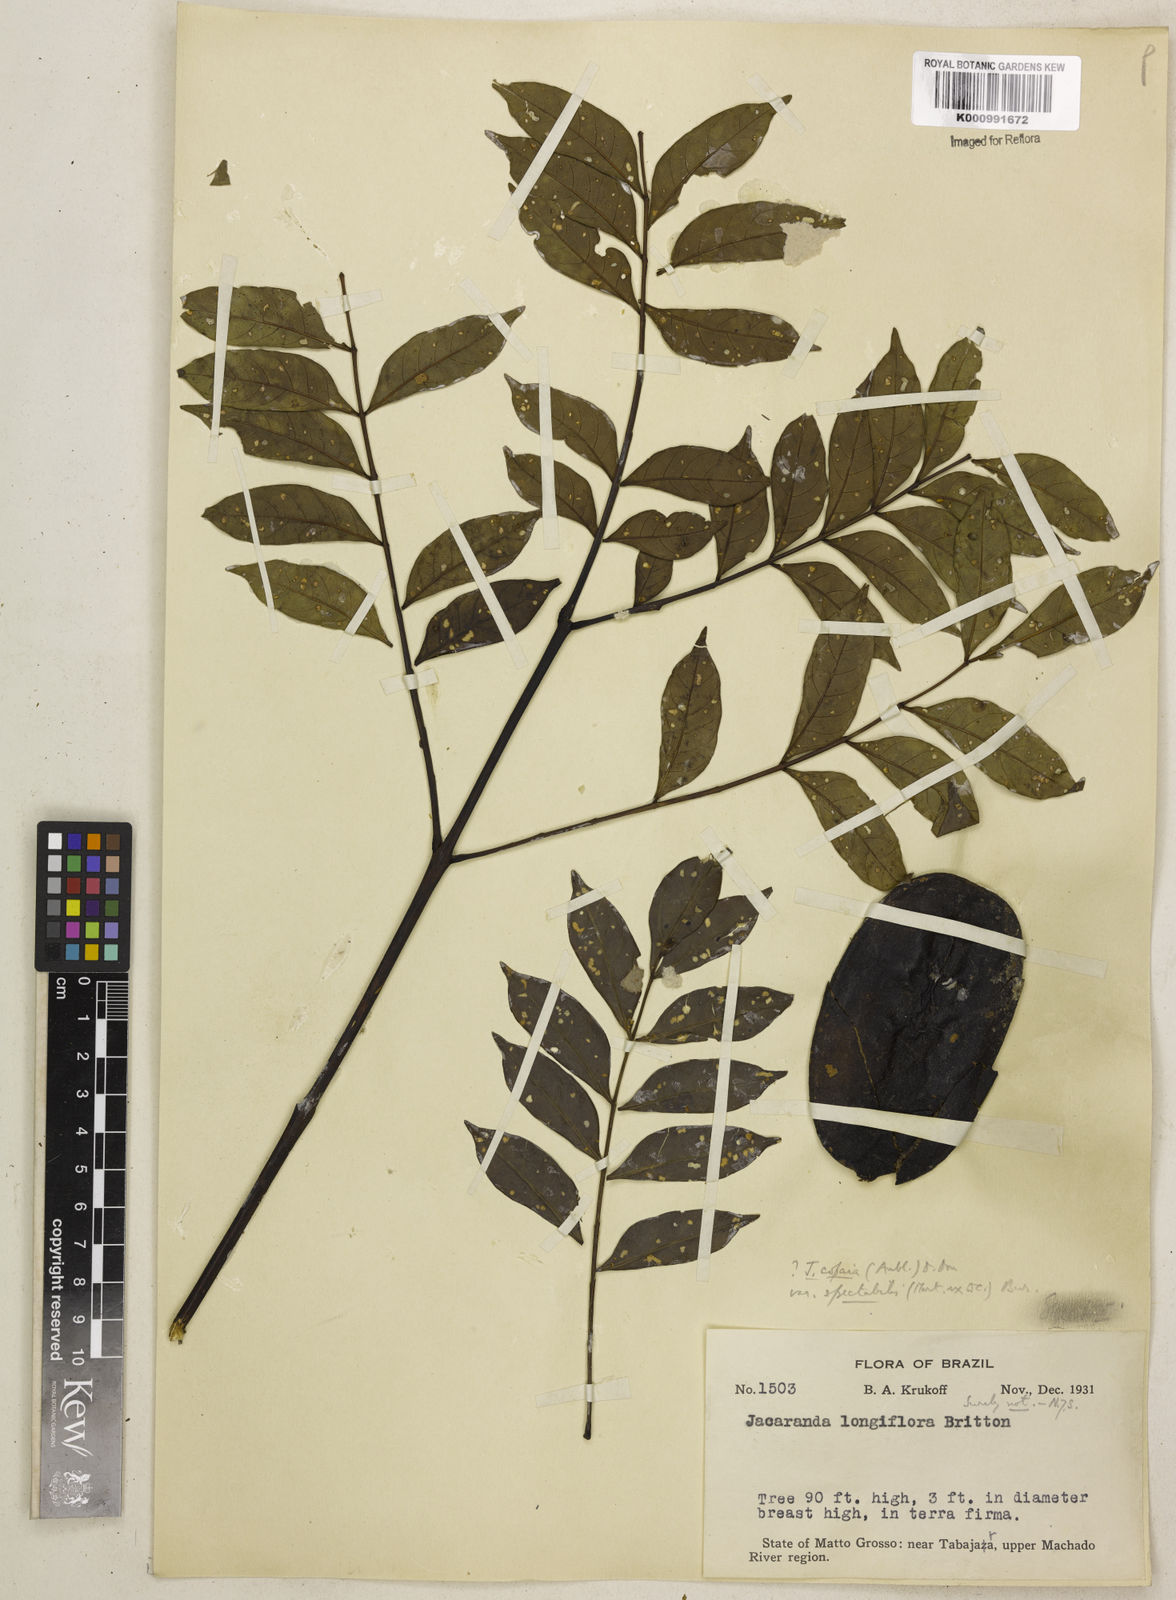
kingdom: Plantae
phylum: Tracheophyta
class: Magnoliopsida
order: Lamiales
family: Bignoniaceae
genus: Jacaranda
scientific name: Jacaranda copaia
